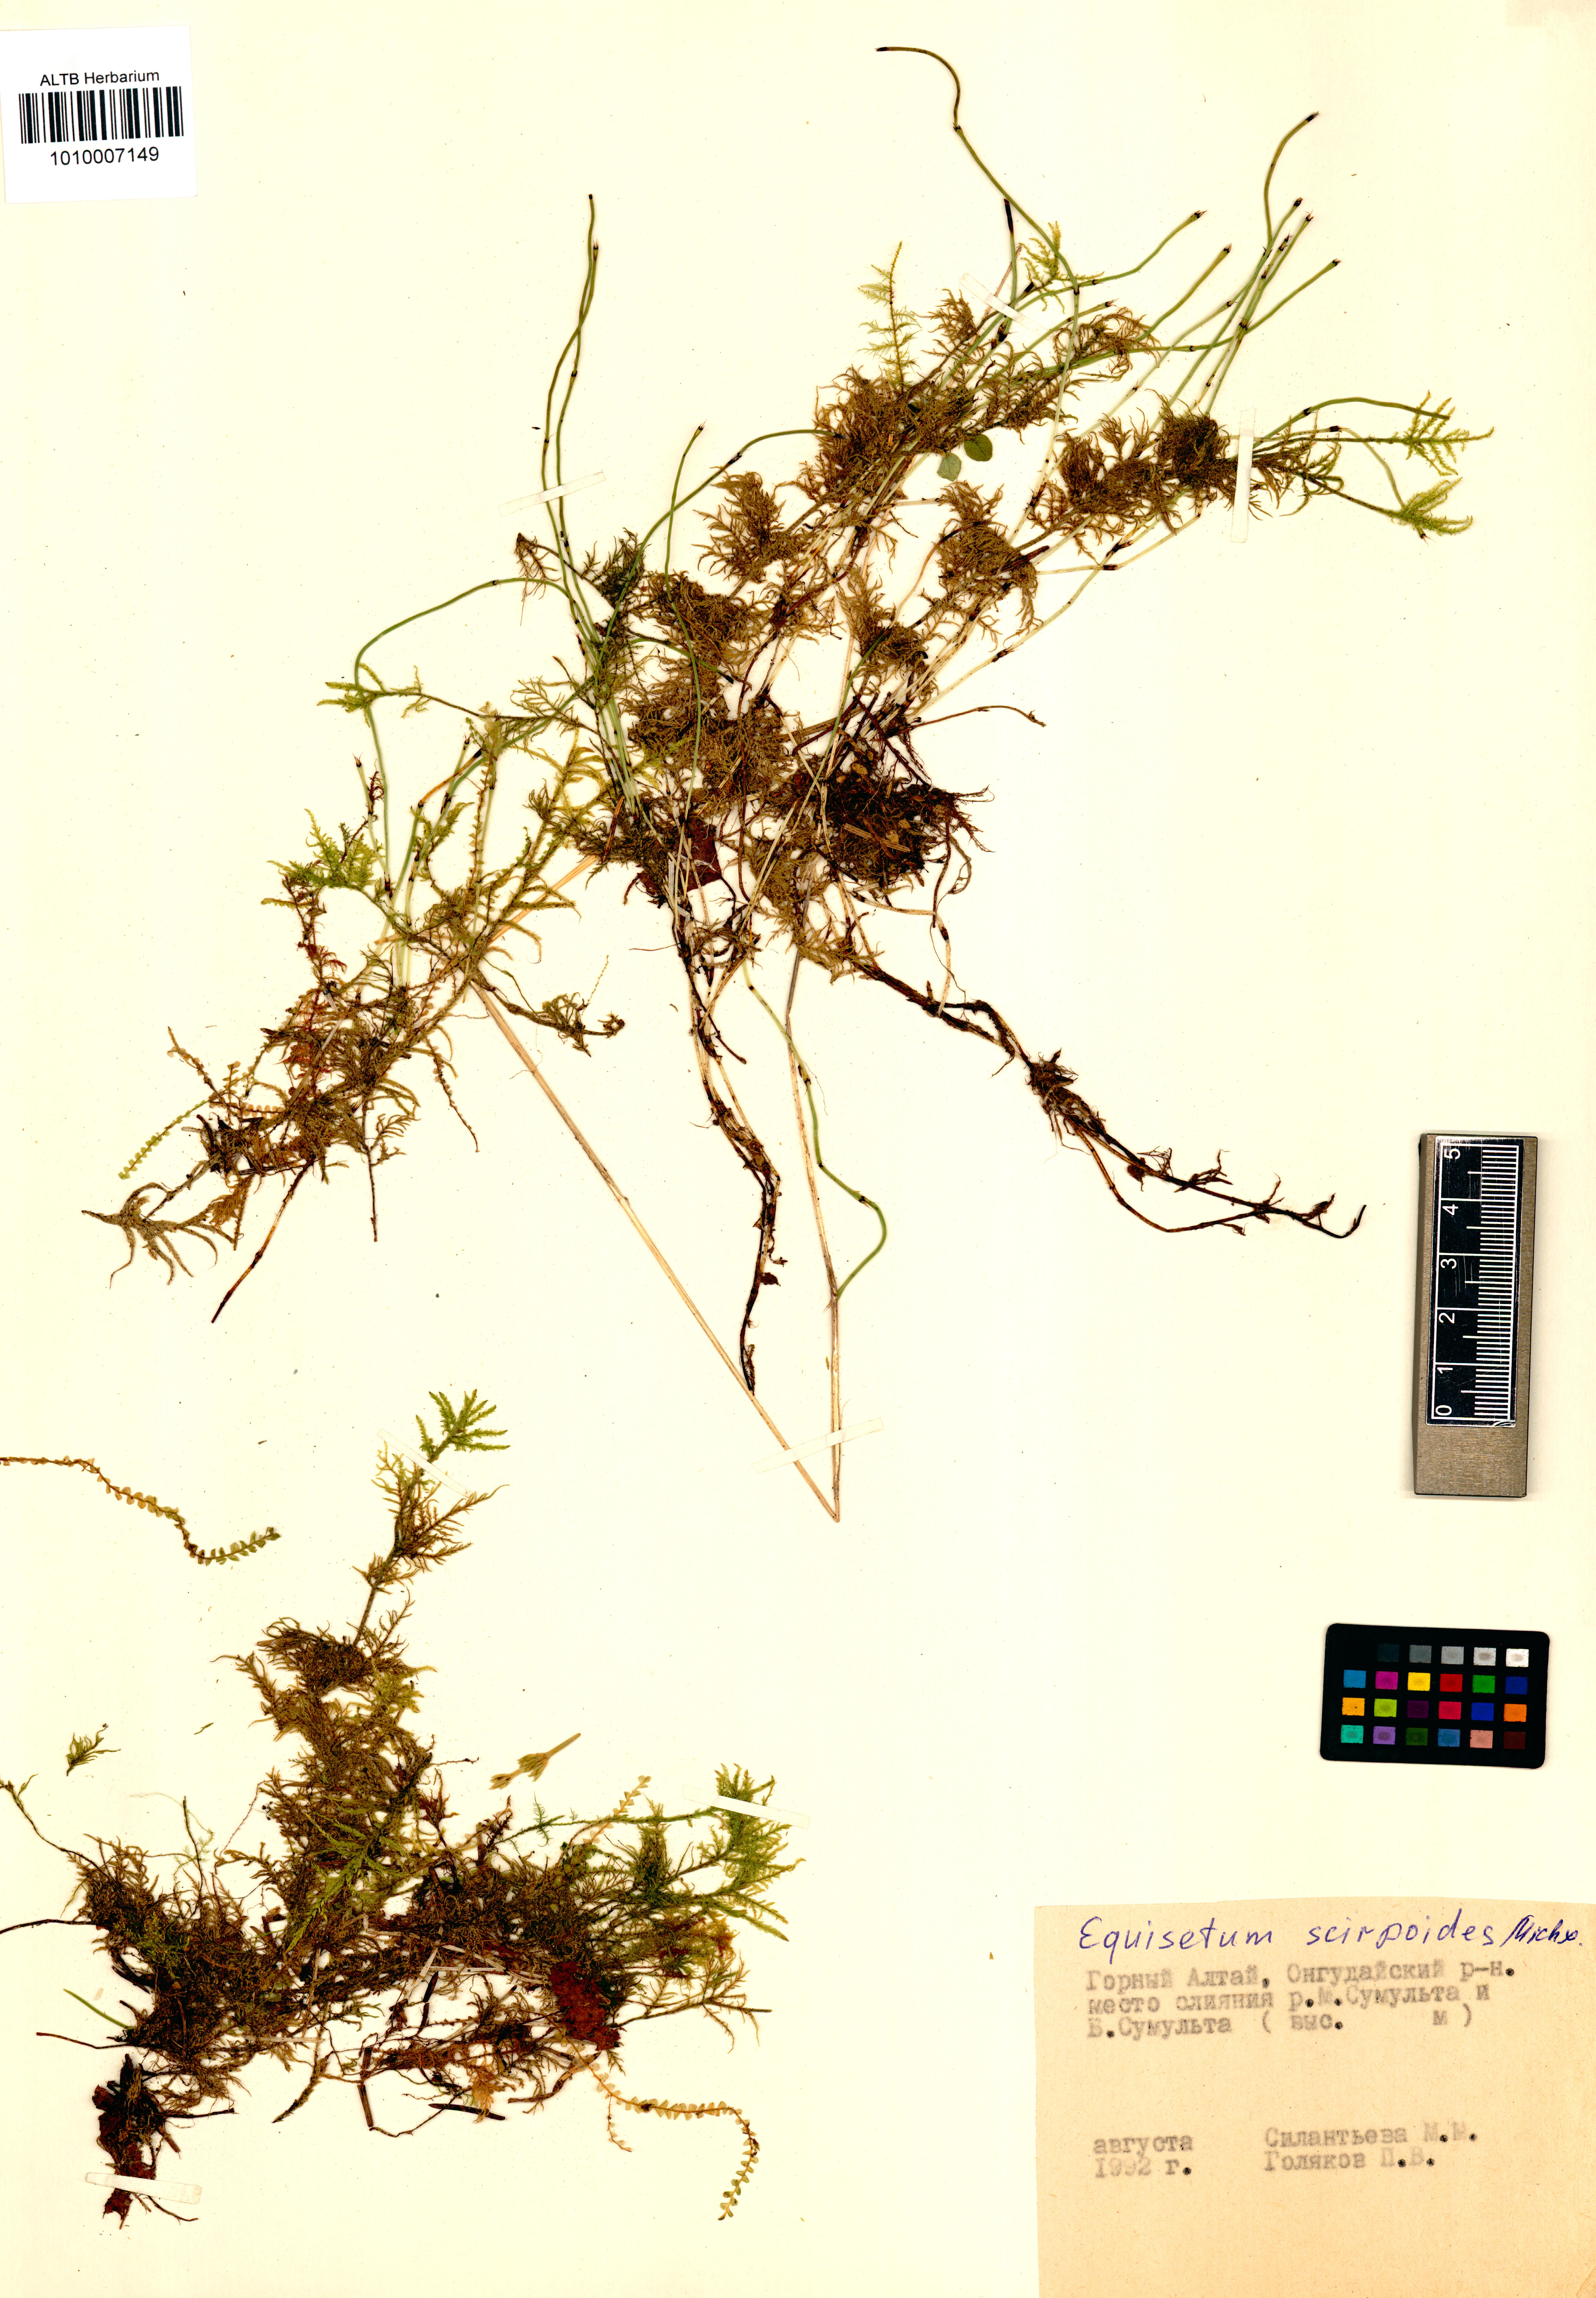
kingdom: Plantae
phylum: Tracheophyta
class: Polypodiopsida
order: Equisetales
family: Equisetaceae
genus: Equisetum
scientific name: Equisetum scirpoides
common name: Delicate horsetail
